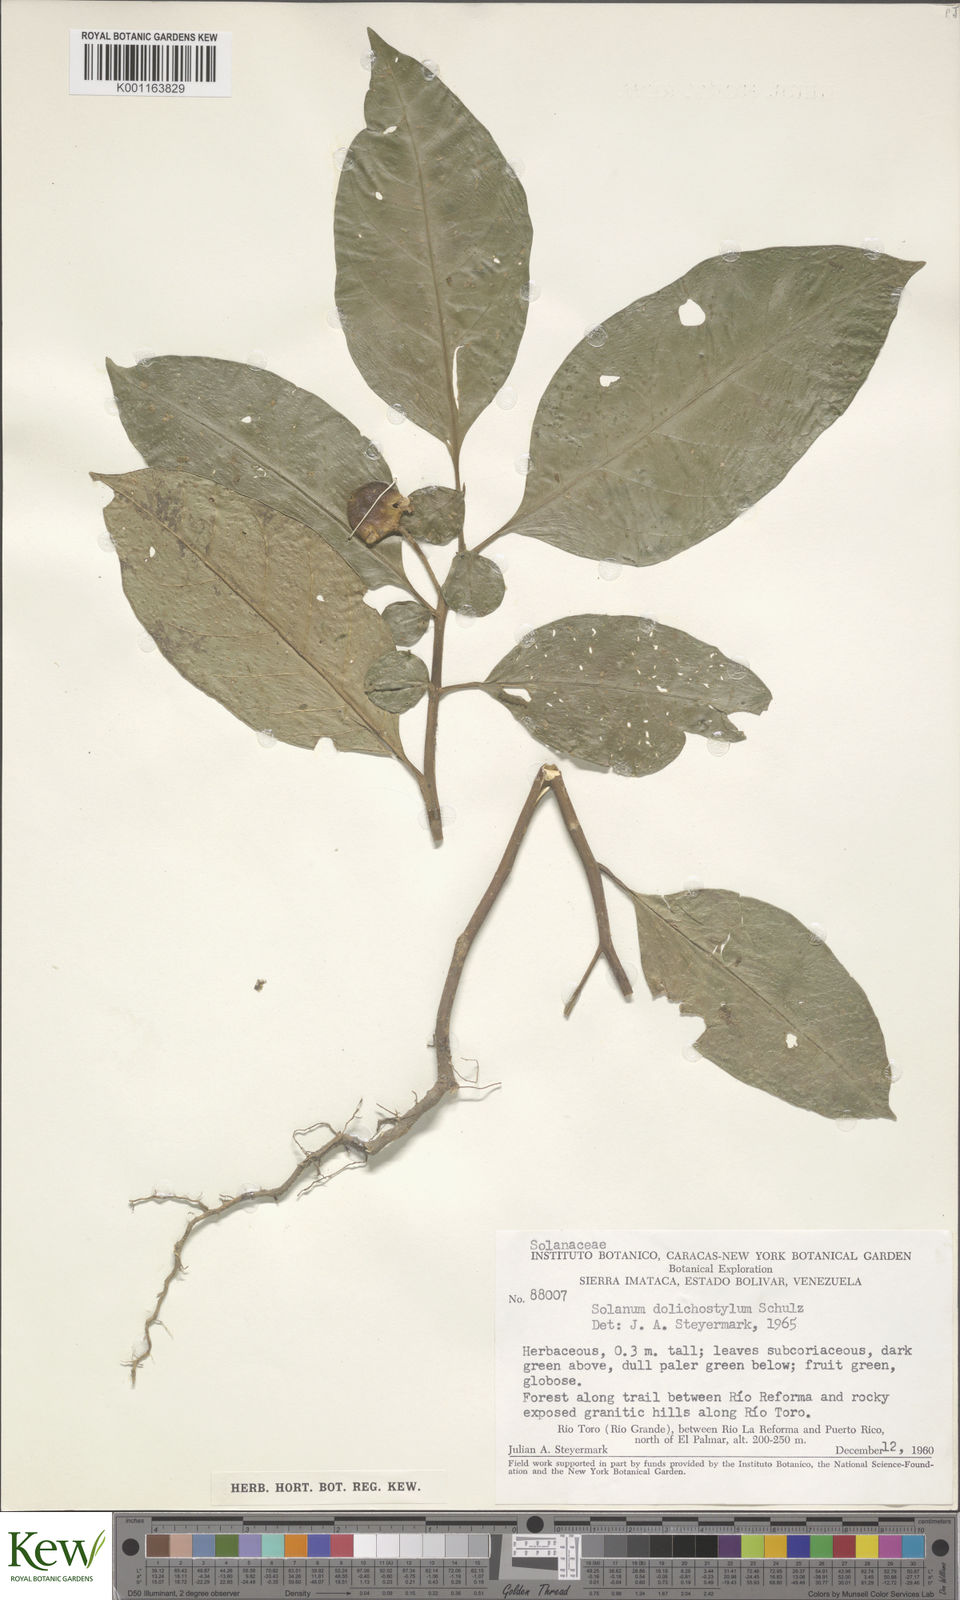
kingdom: Plantae
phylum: Tracheophyta
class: Magnoliopsida
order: Solanales
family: Solanaceae
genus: Solanum
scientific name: Solanum arboreum
